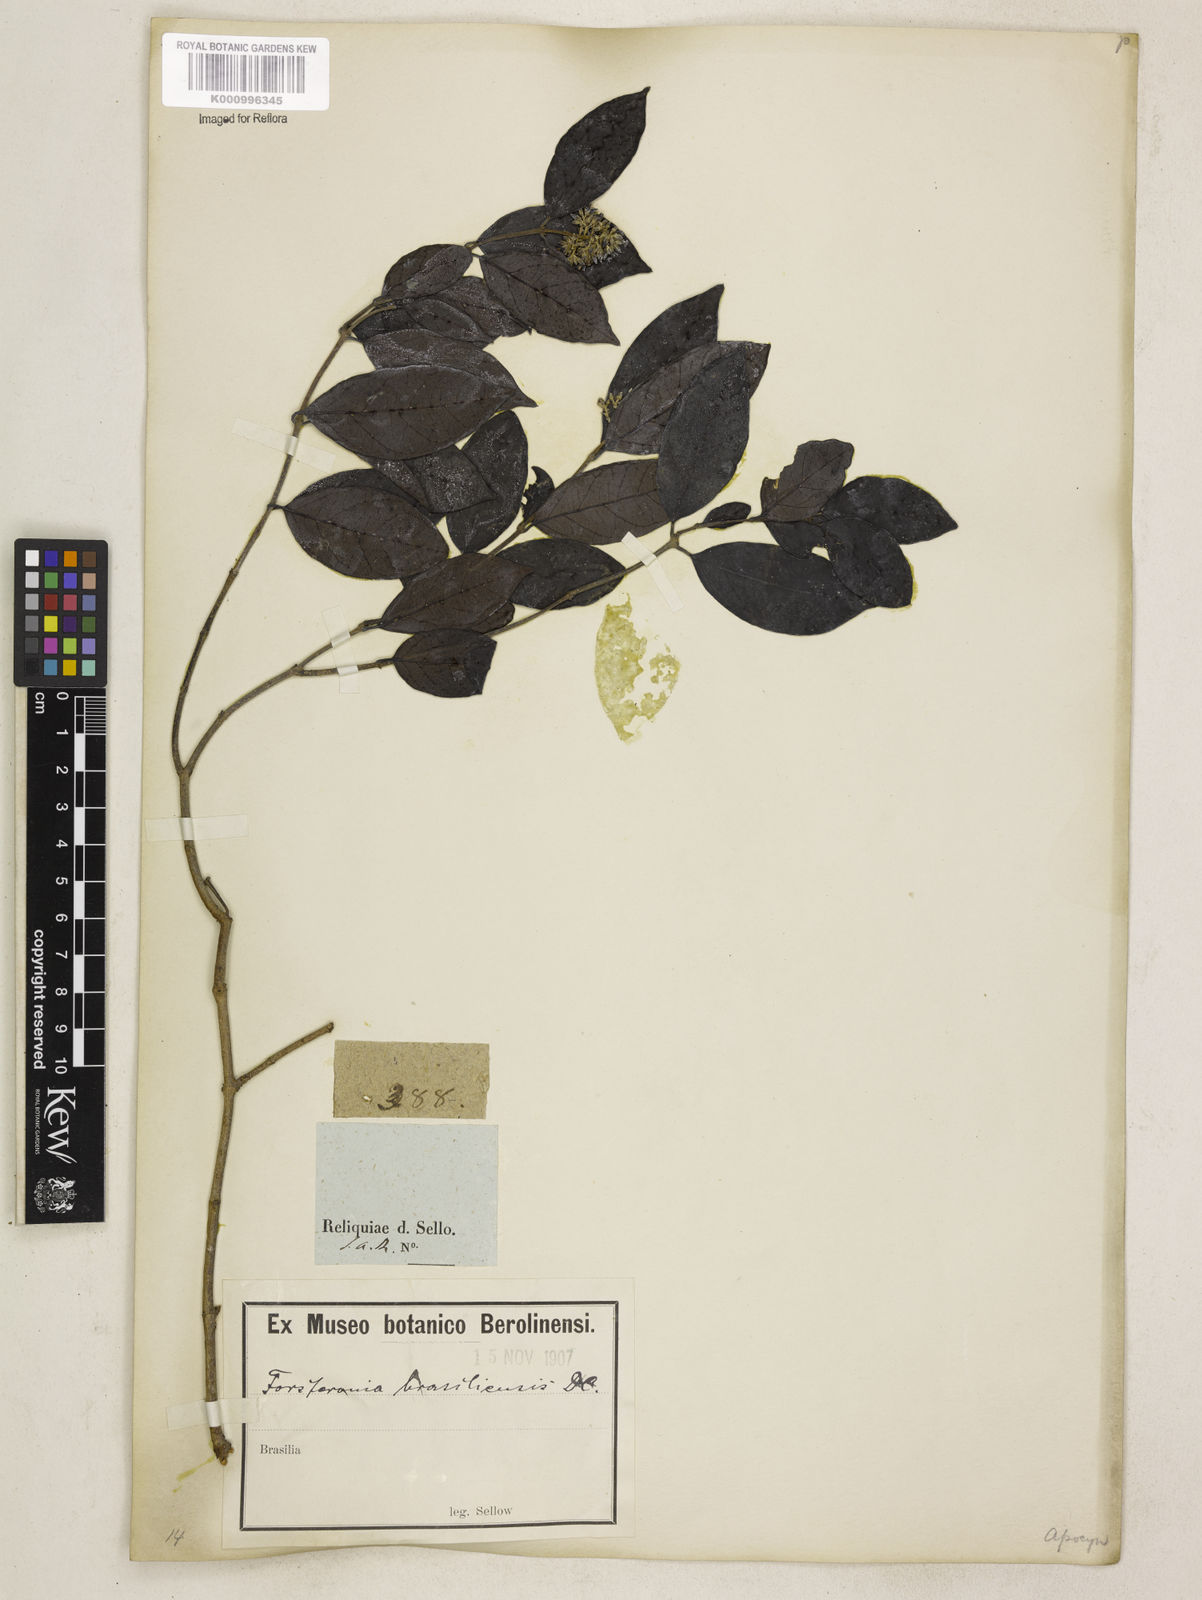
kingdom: Plantae
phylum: Tracheophyta
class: Magnoliopsida
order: Gentianales
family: Apocynaceae
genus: Forsteronia
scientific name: Forsteronia leptocarpa
